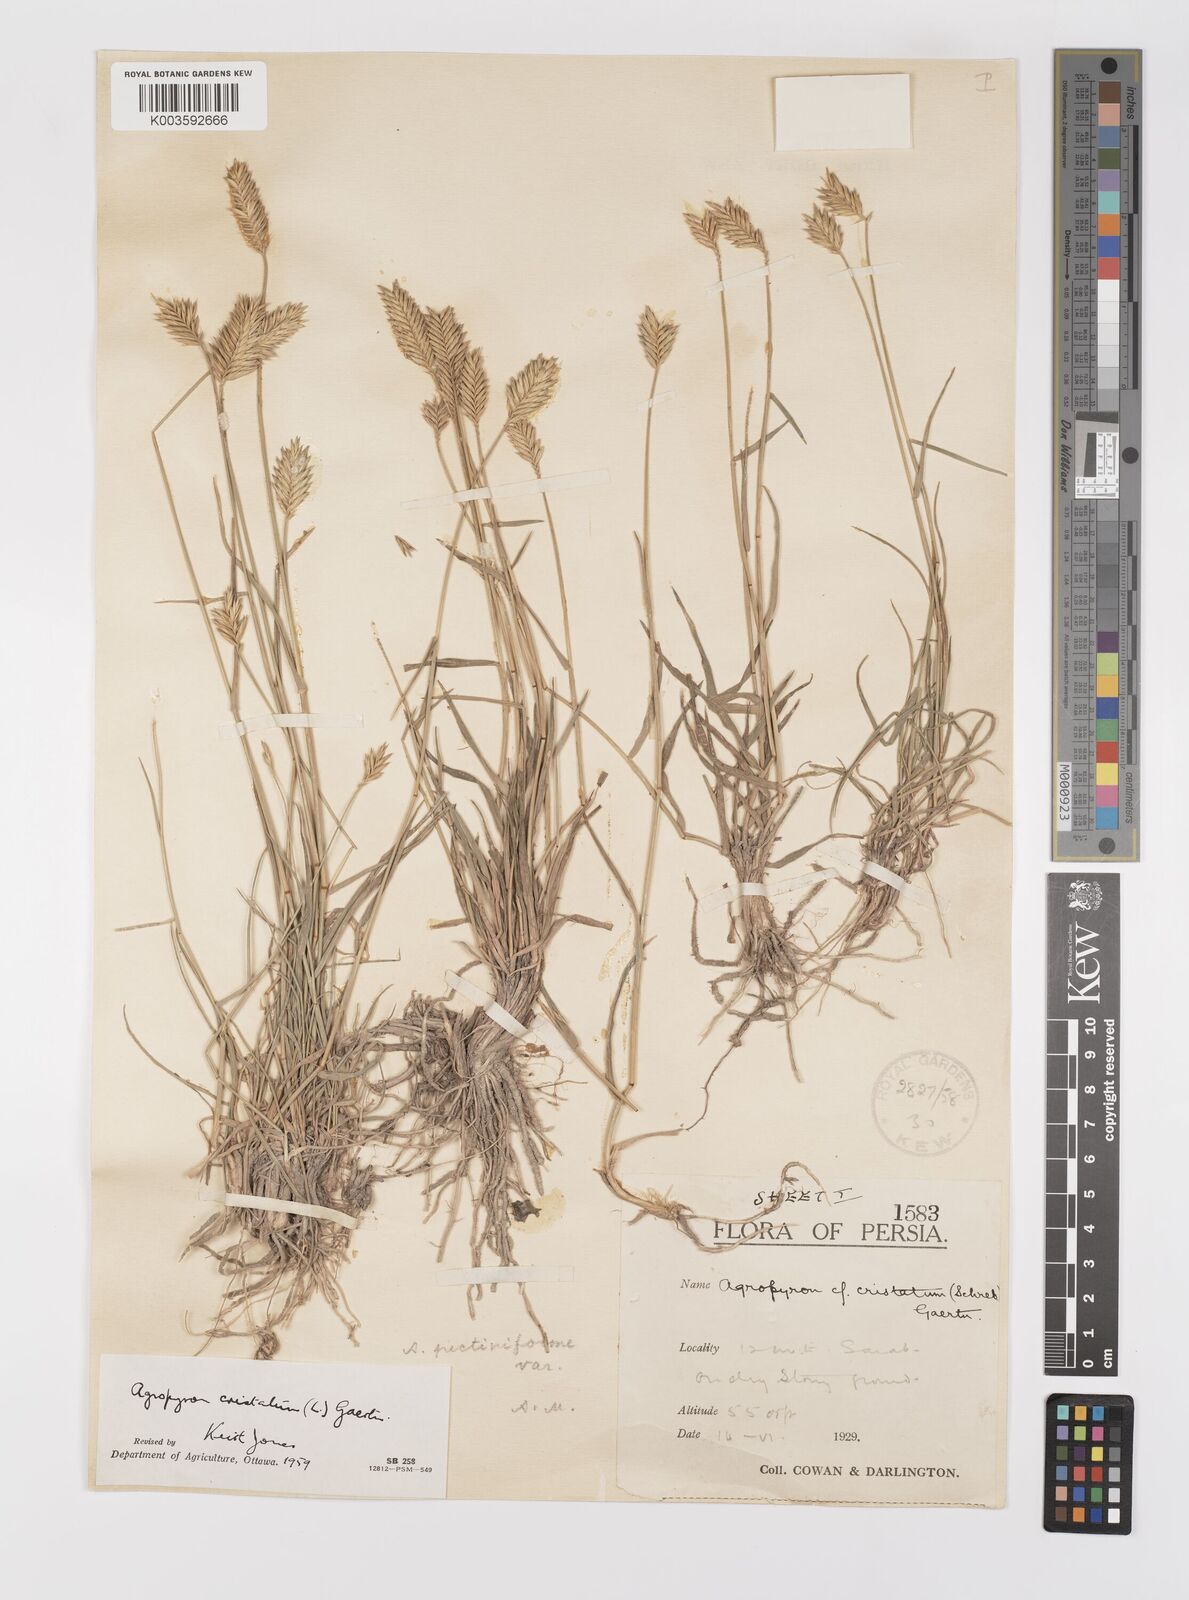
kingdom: Plantae
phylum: Tracheophyta
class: Liliopsida
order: Poales
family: Poaceae
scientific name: Poaceae
